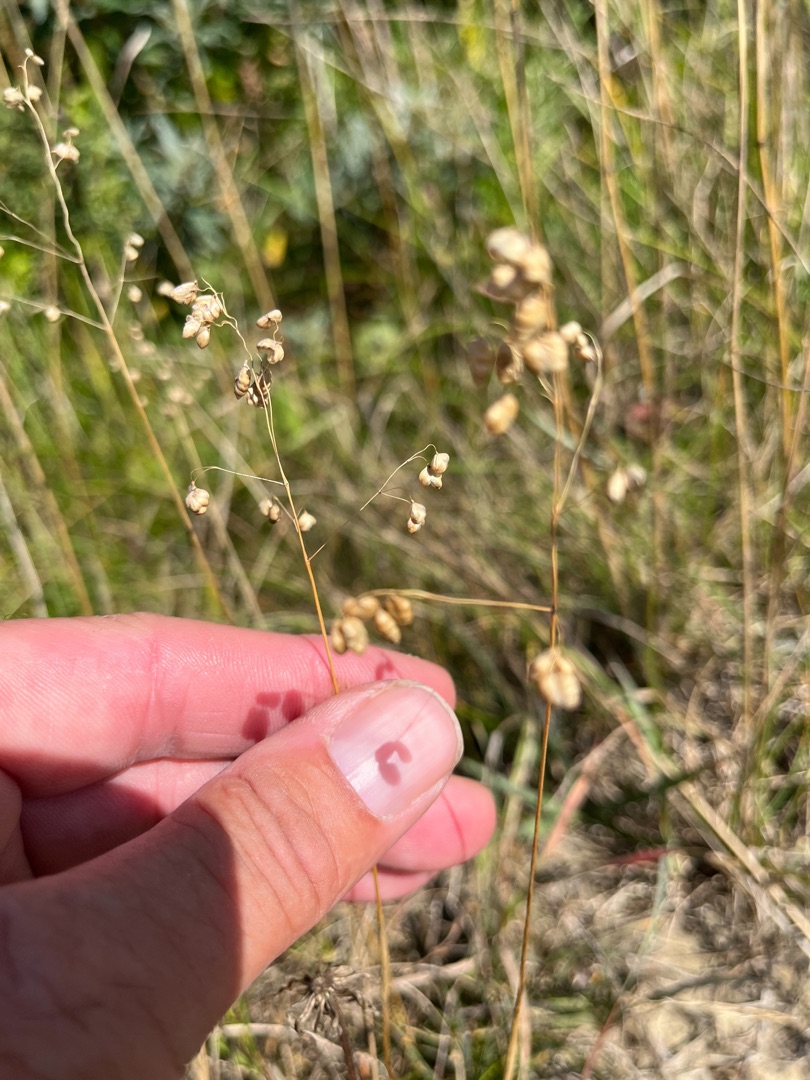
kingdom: Plantae
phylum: Tracheophyta
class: Liliopsida
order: Poales
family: Poaceae
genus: Briza
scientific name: Briza media
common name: Hjertegræs
